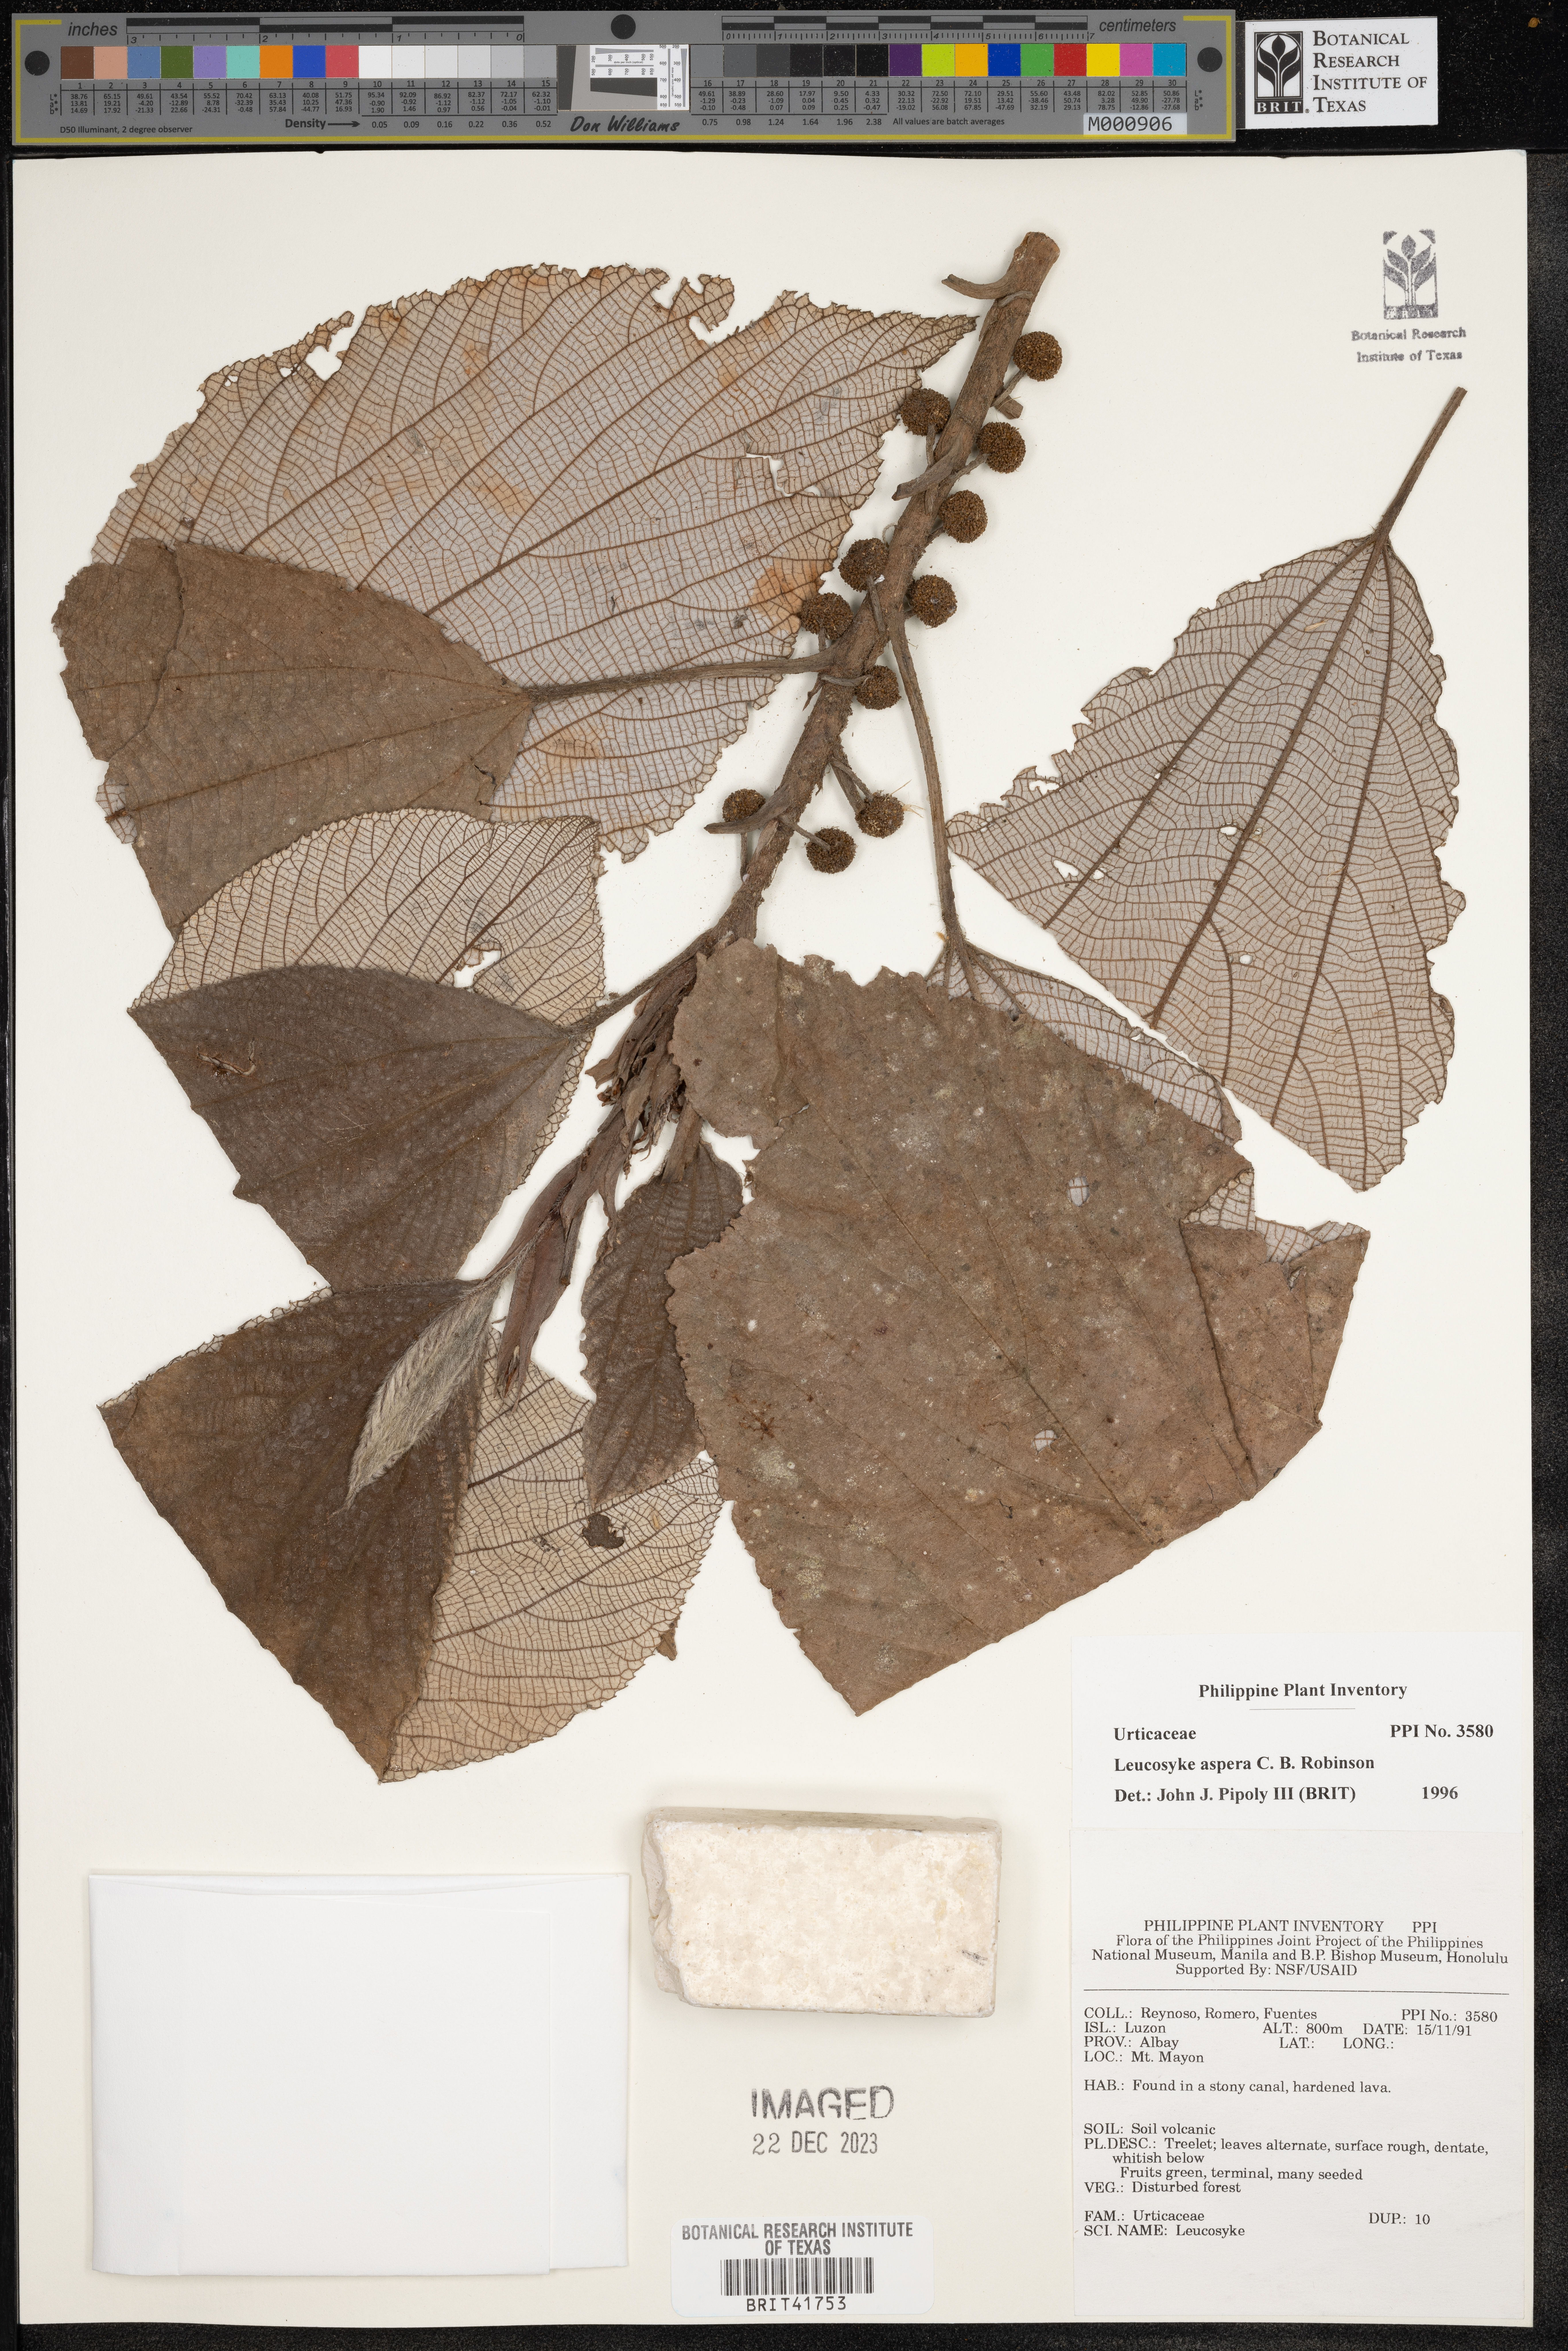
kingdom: Plantae
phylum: Tracheophyta
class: Magnoliopsida
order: Rosales
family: Urticaceae
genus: Leucosyke
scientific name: Leucosyke aspera
